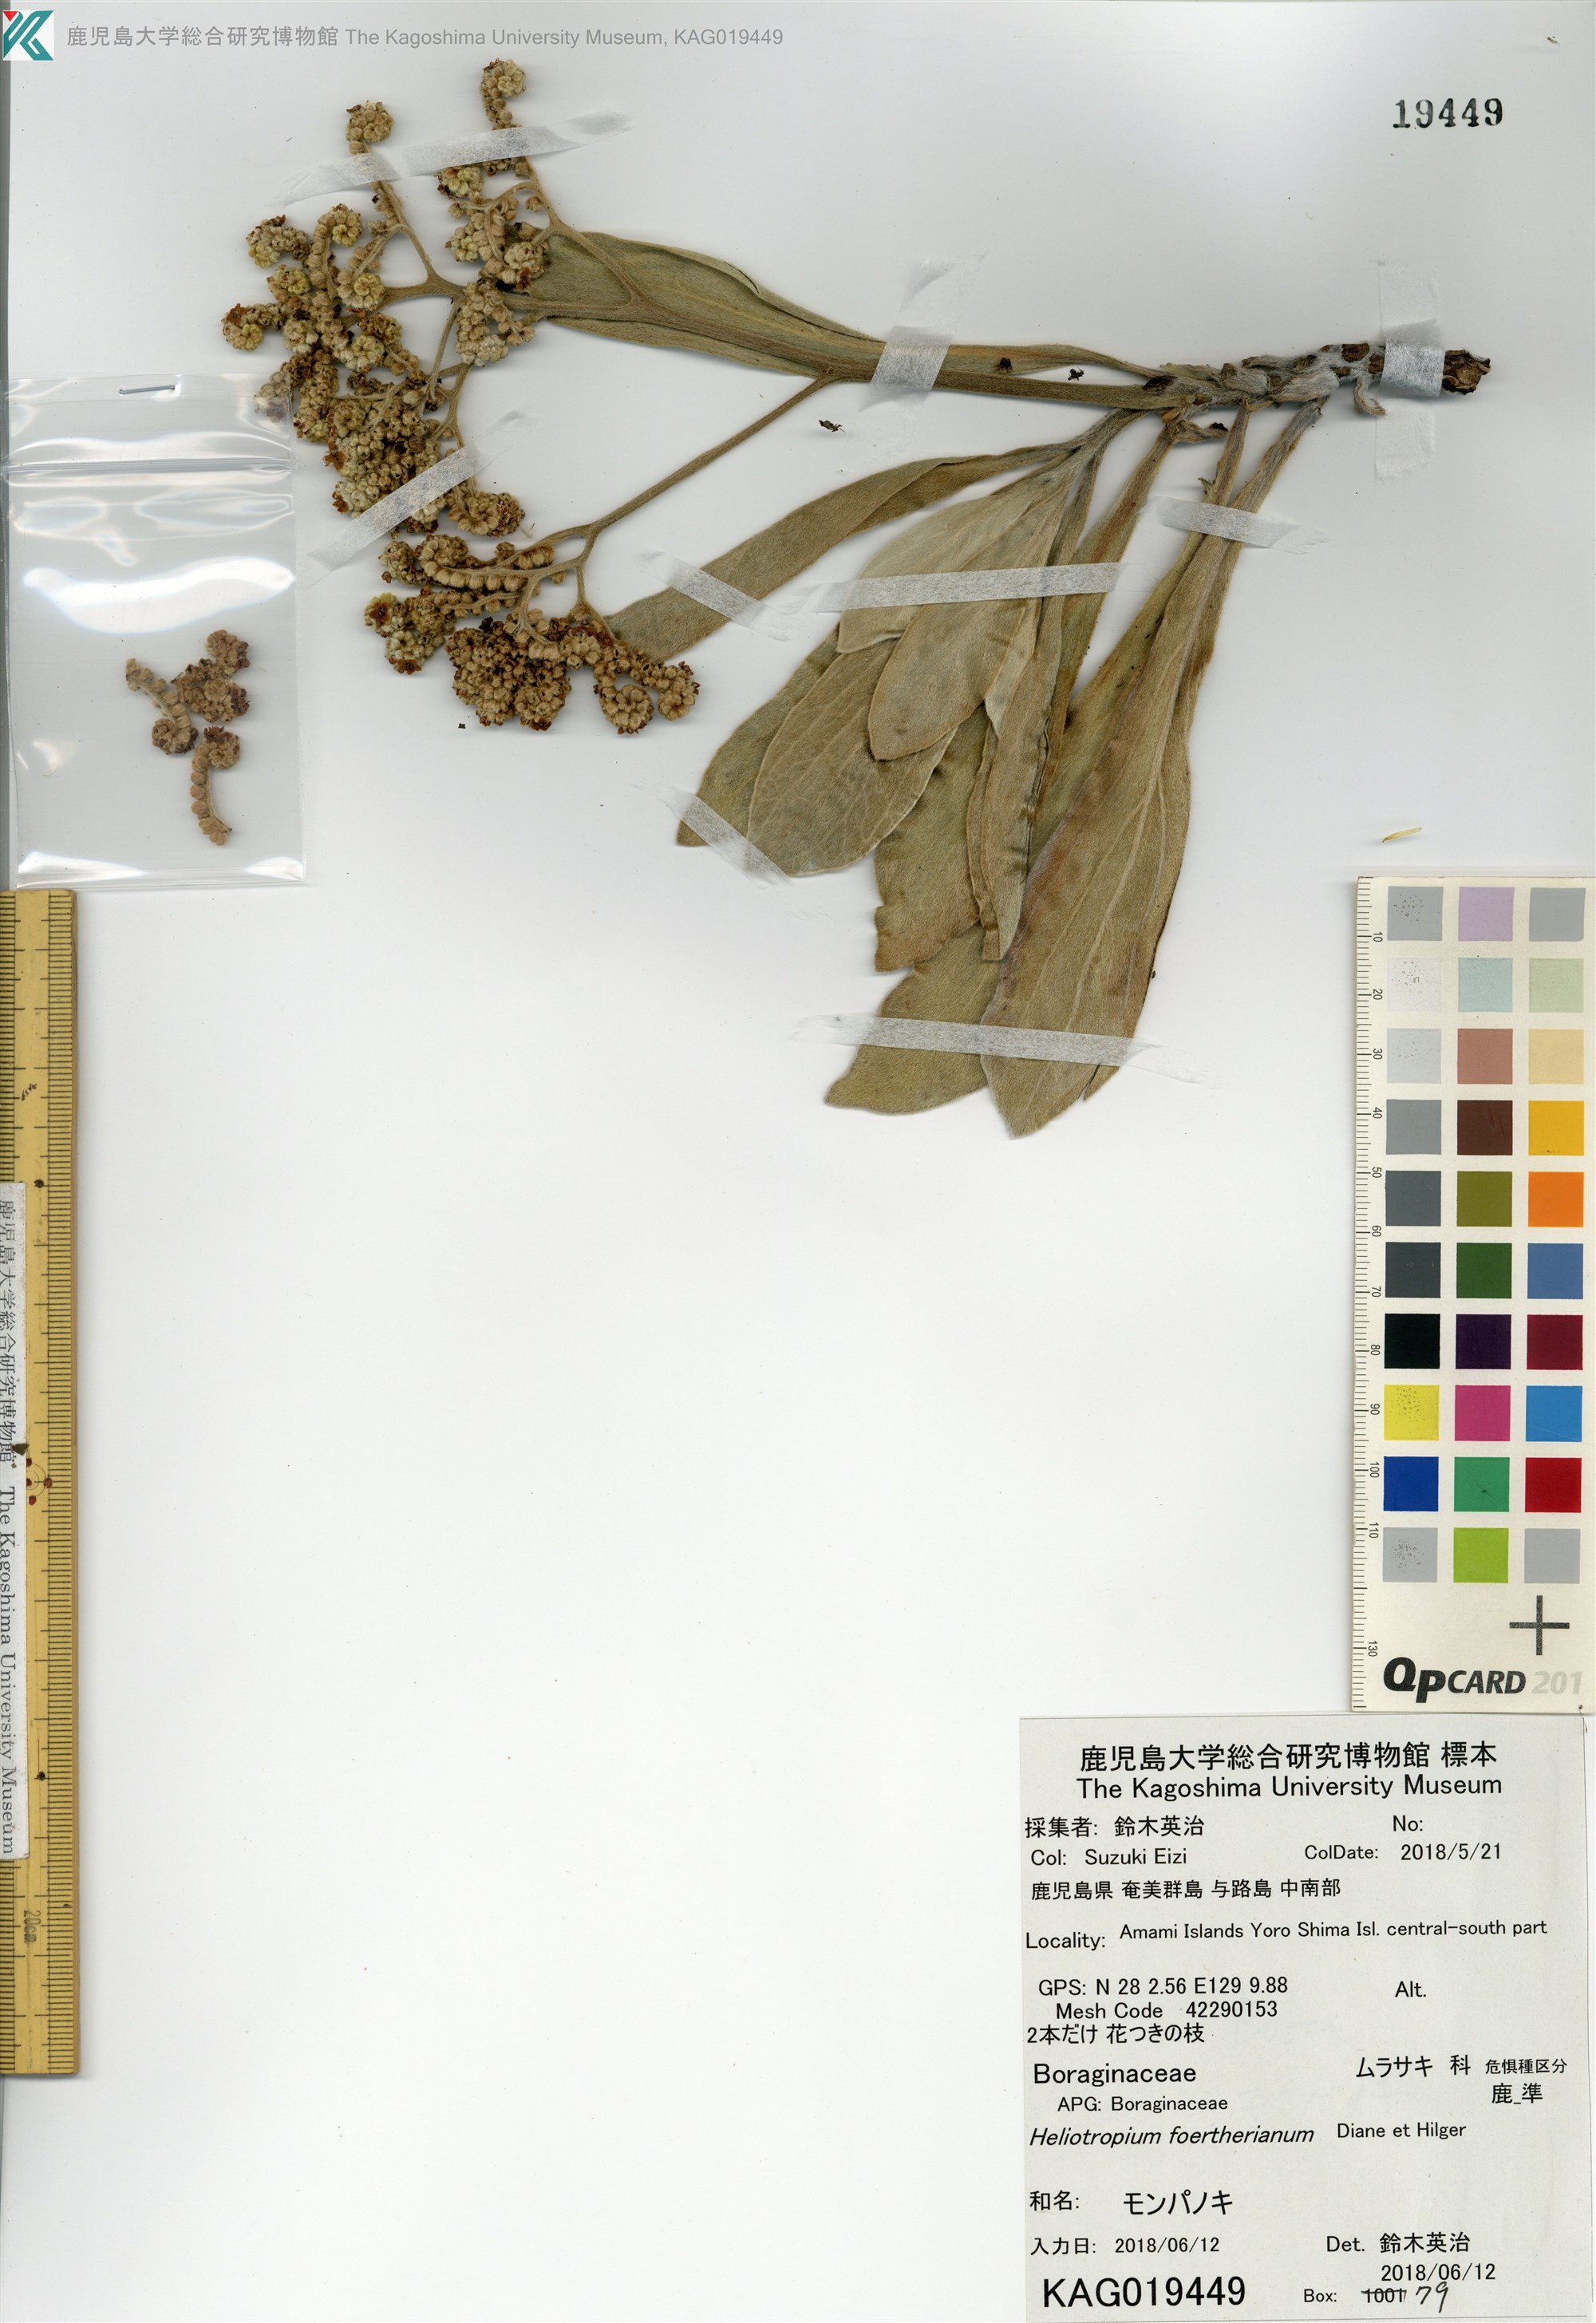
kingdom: Plantae
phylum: Tracheophyta
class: Magnoliopsida
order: Boraginales
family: Heliotropiaceae
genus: Heliotropium
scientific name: Heliotropium velutinum
